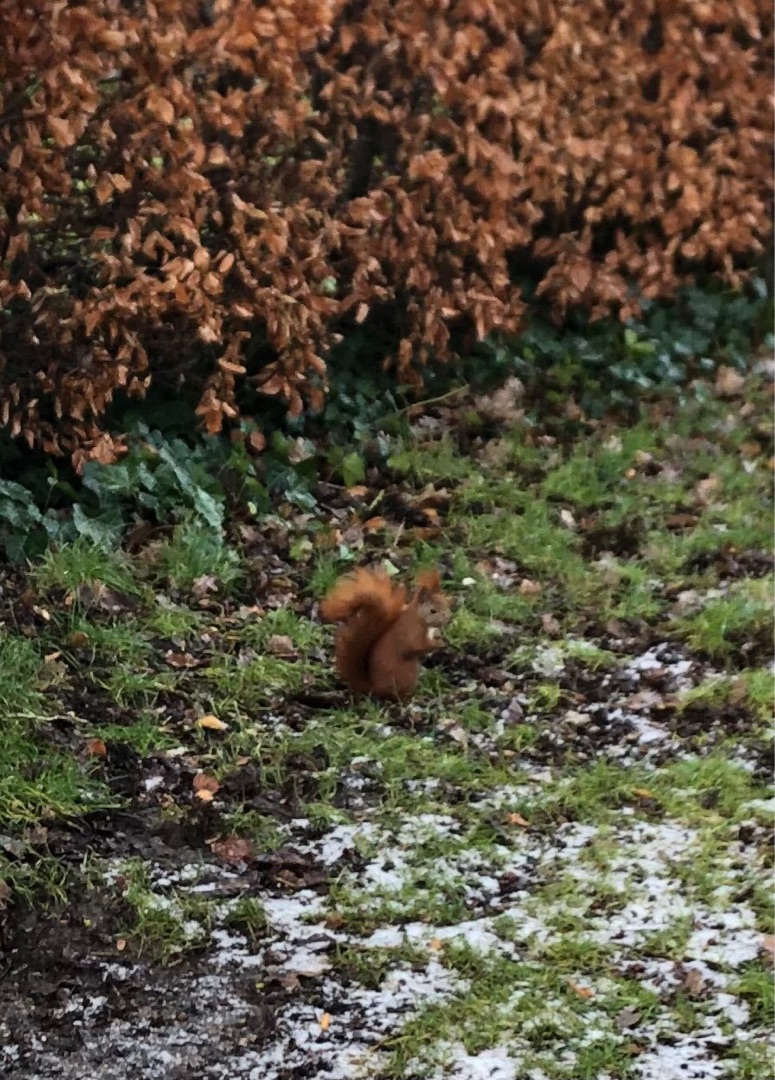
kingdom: Animalia
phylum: Chordata
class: Mammalia
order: Rodentia
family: Sciuridae
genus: Sciurus
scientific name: Sciurus vulgaris
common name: Egern
